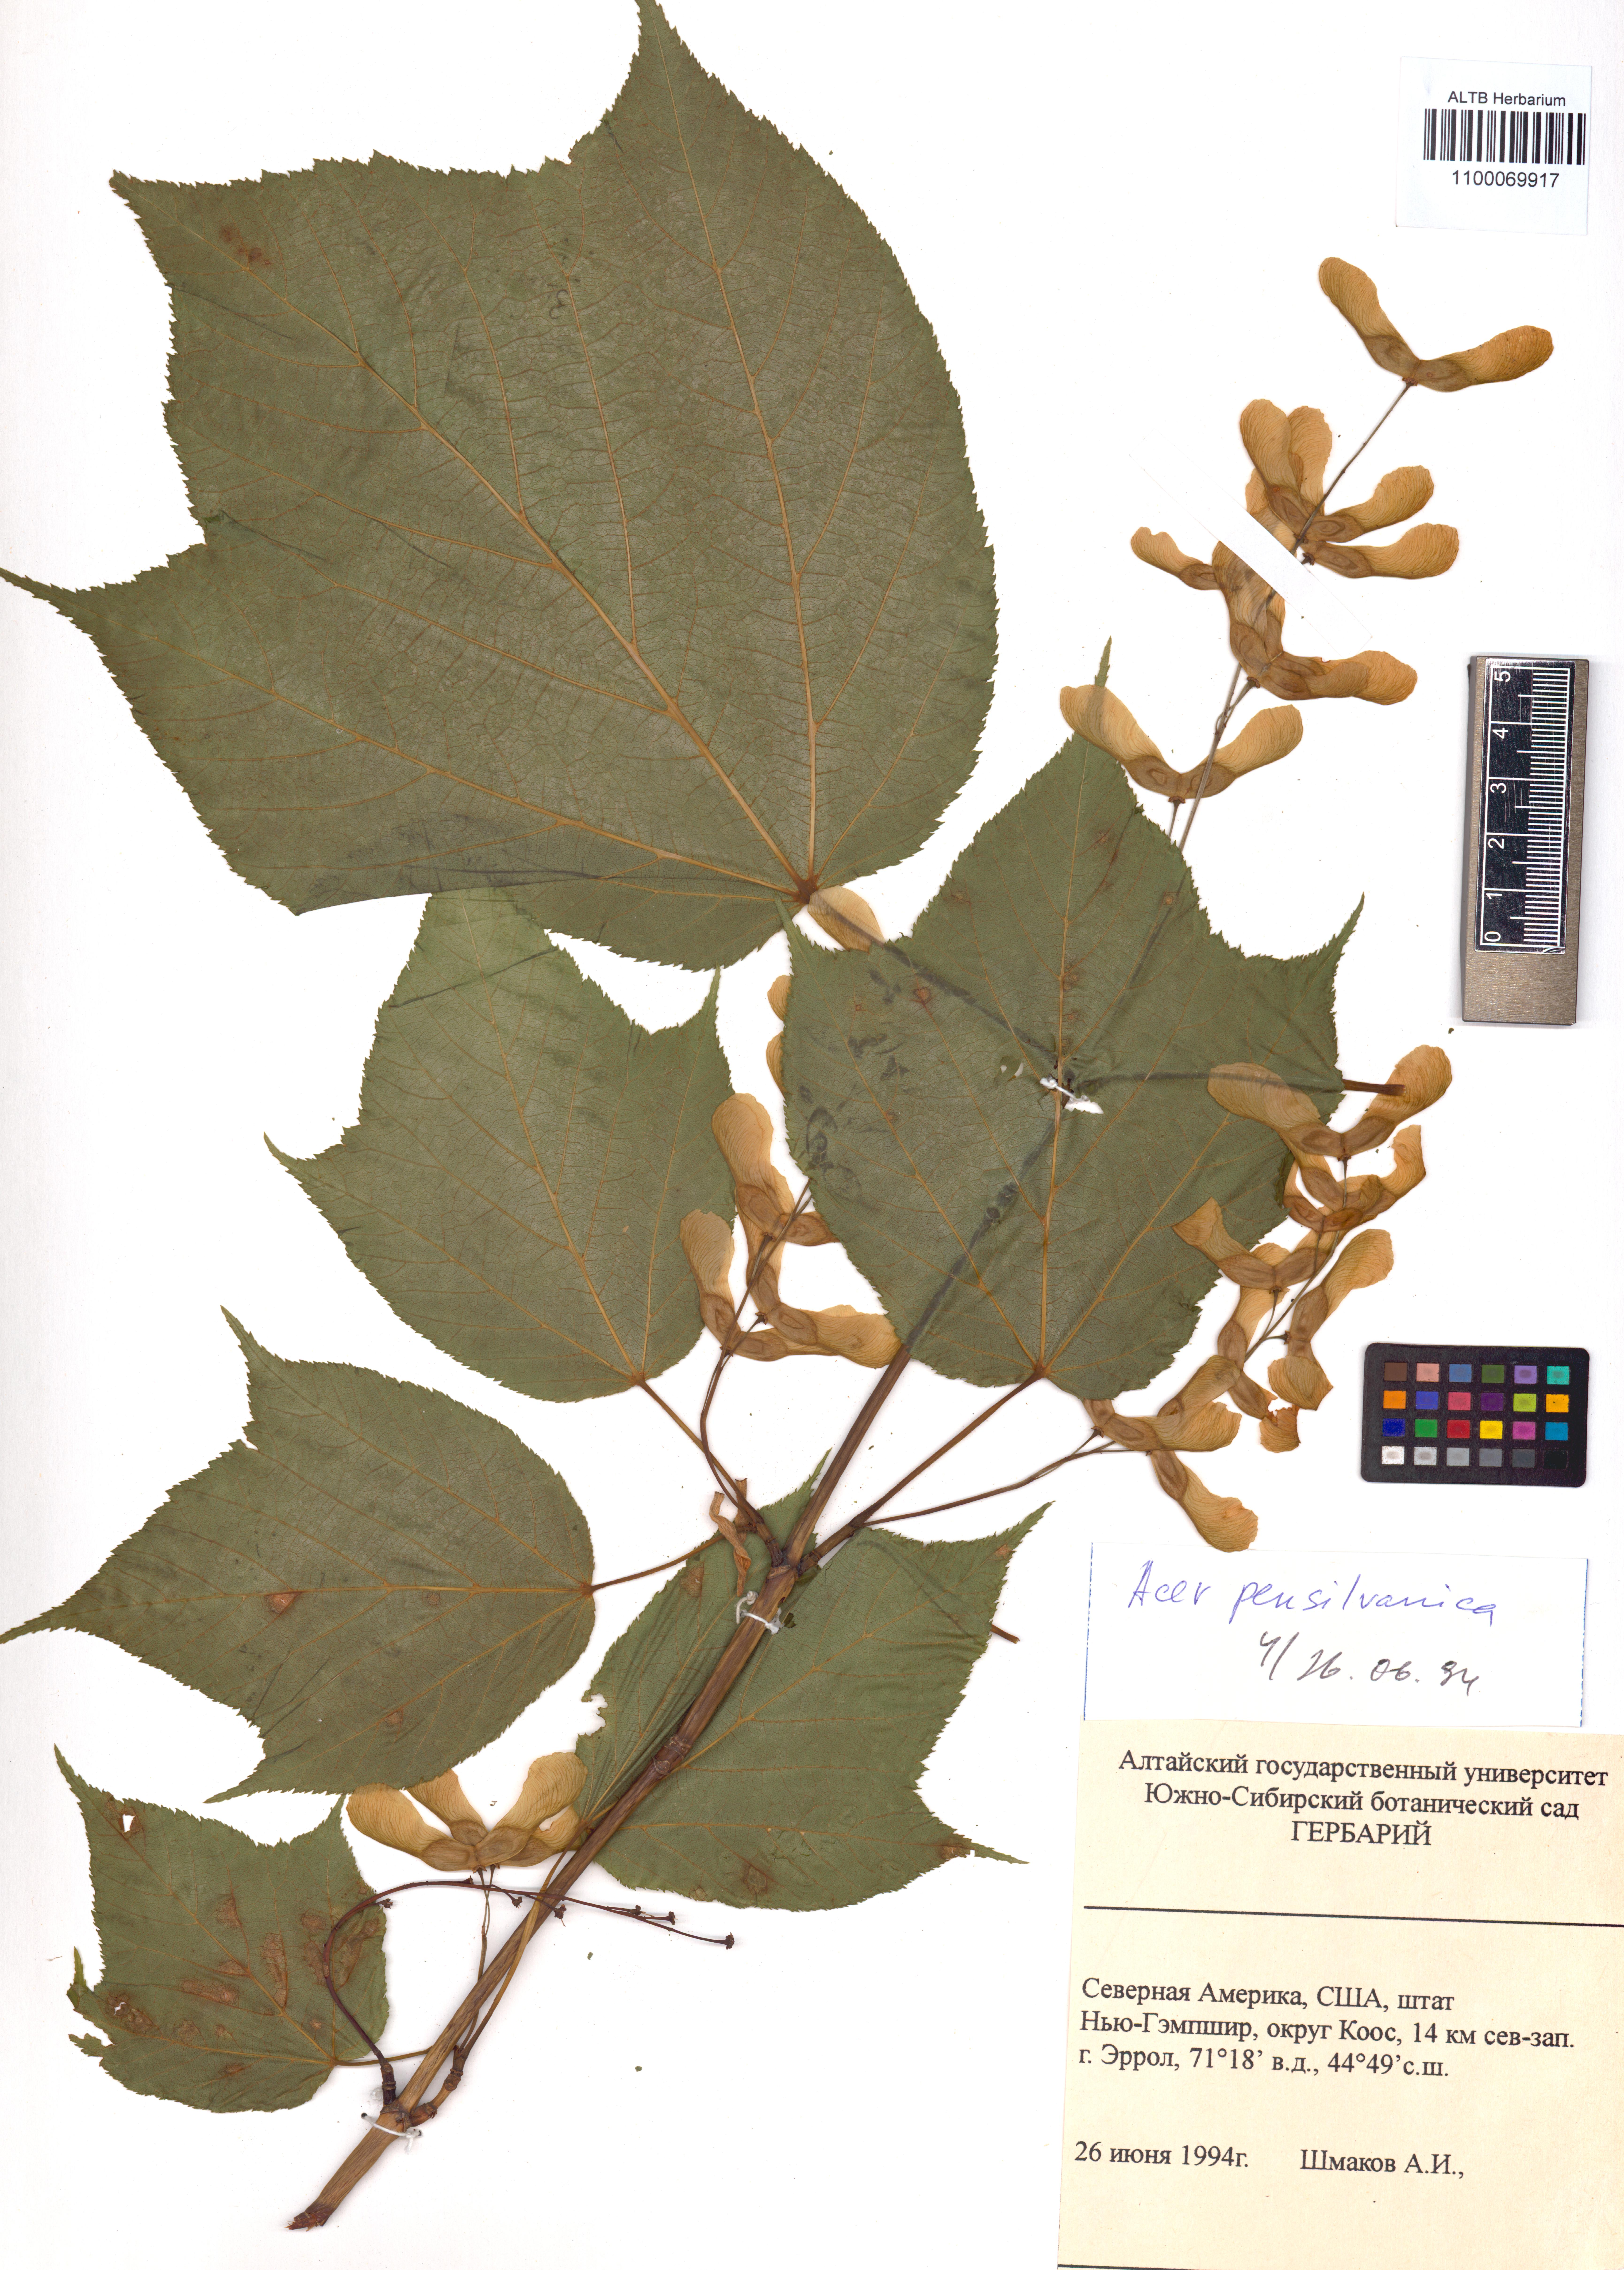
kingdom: Plantae
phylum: Tracheophyta
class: Magnoliopsida
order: Sapindales
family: Sapindaceae
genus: Acer
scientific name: Acer pensylvanicum
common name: Moosewood
